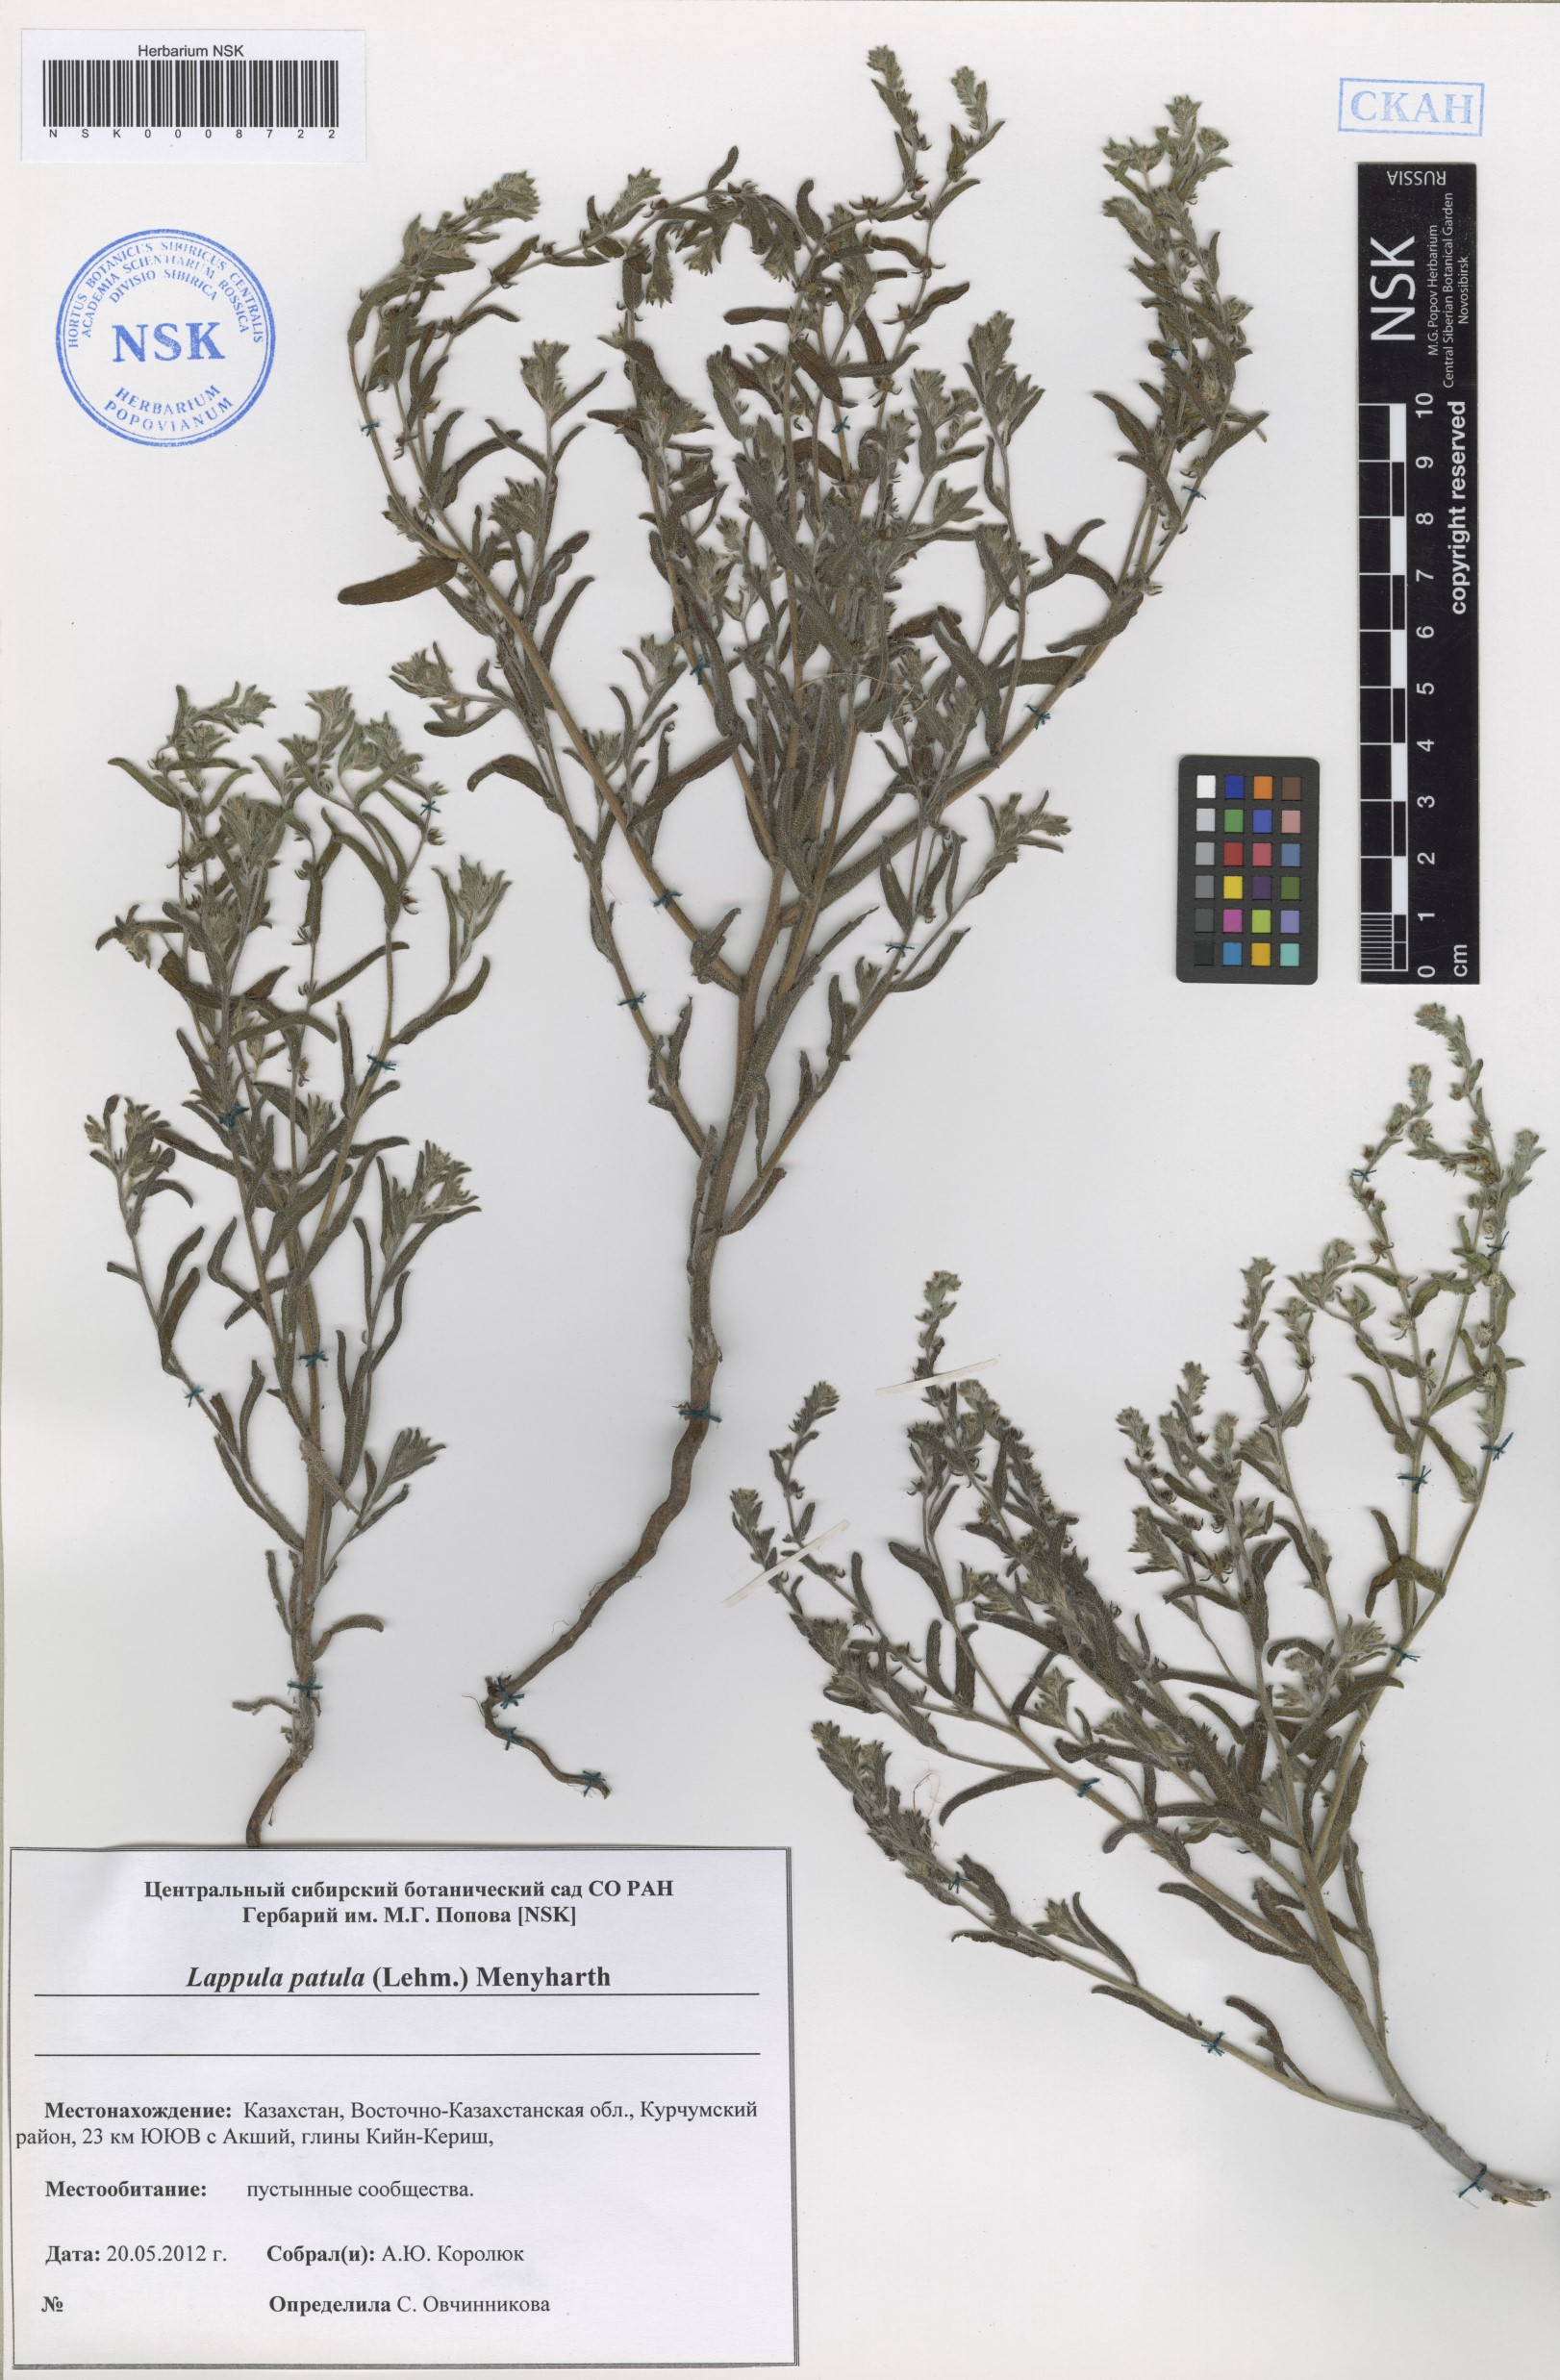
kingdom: Plantae
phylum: Tracheophyta
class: Magnoliopsida
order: Boraginales
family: Boraginaceae
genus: Lappula
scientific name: Lappula patula
